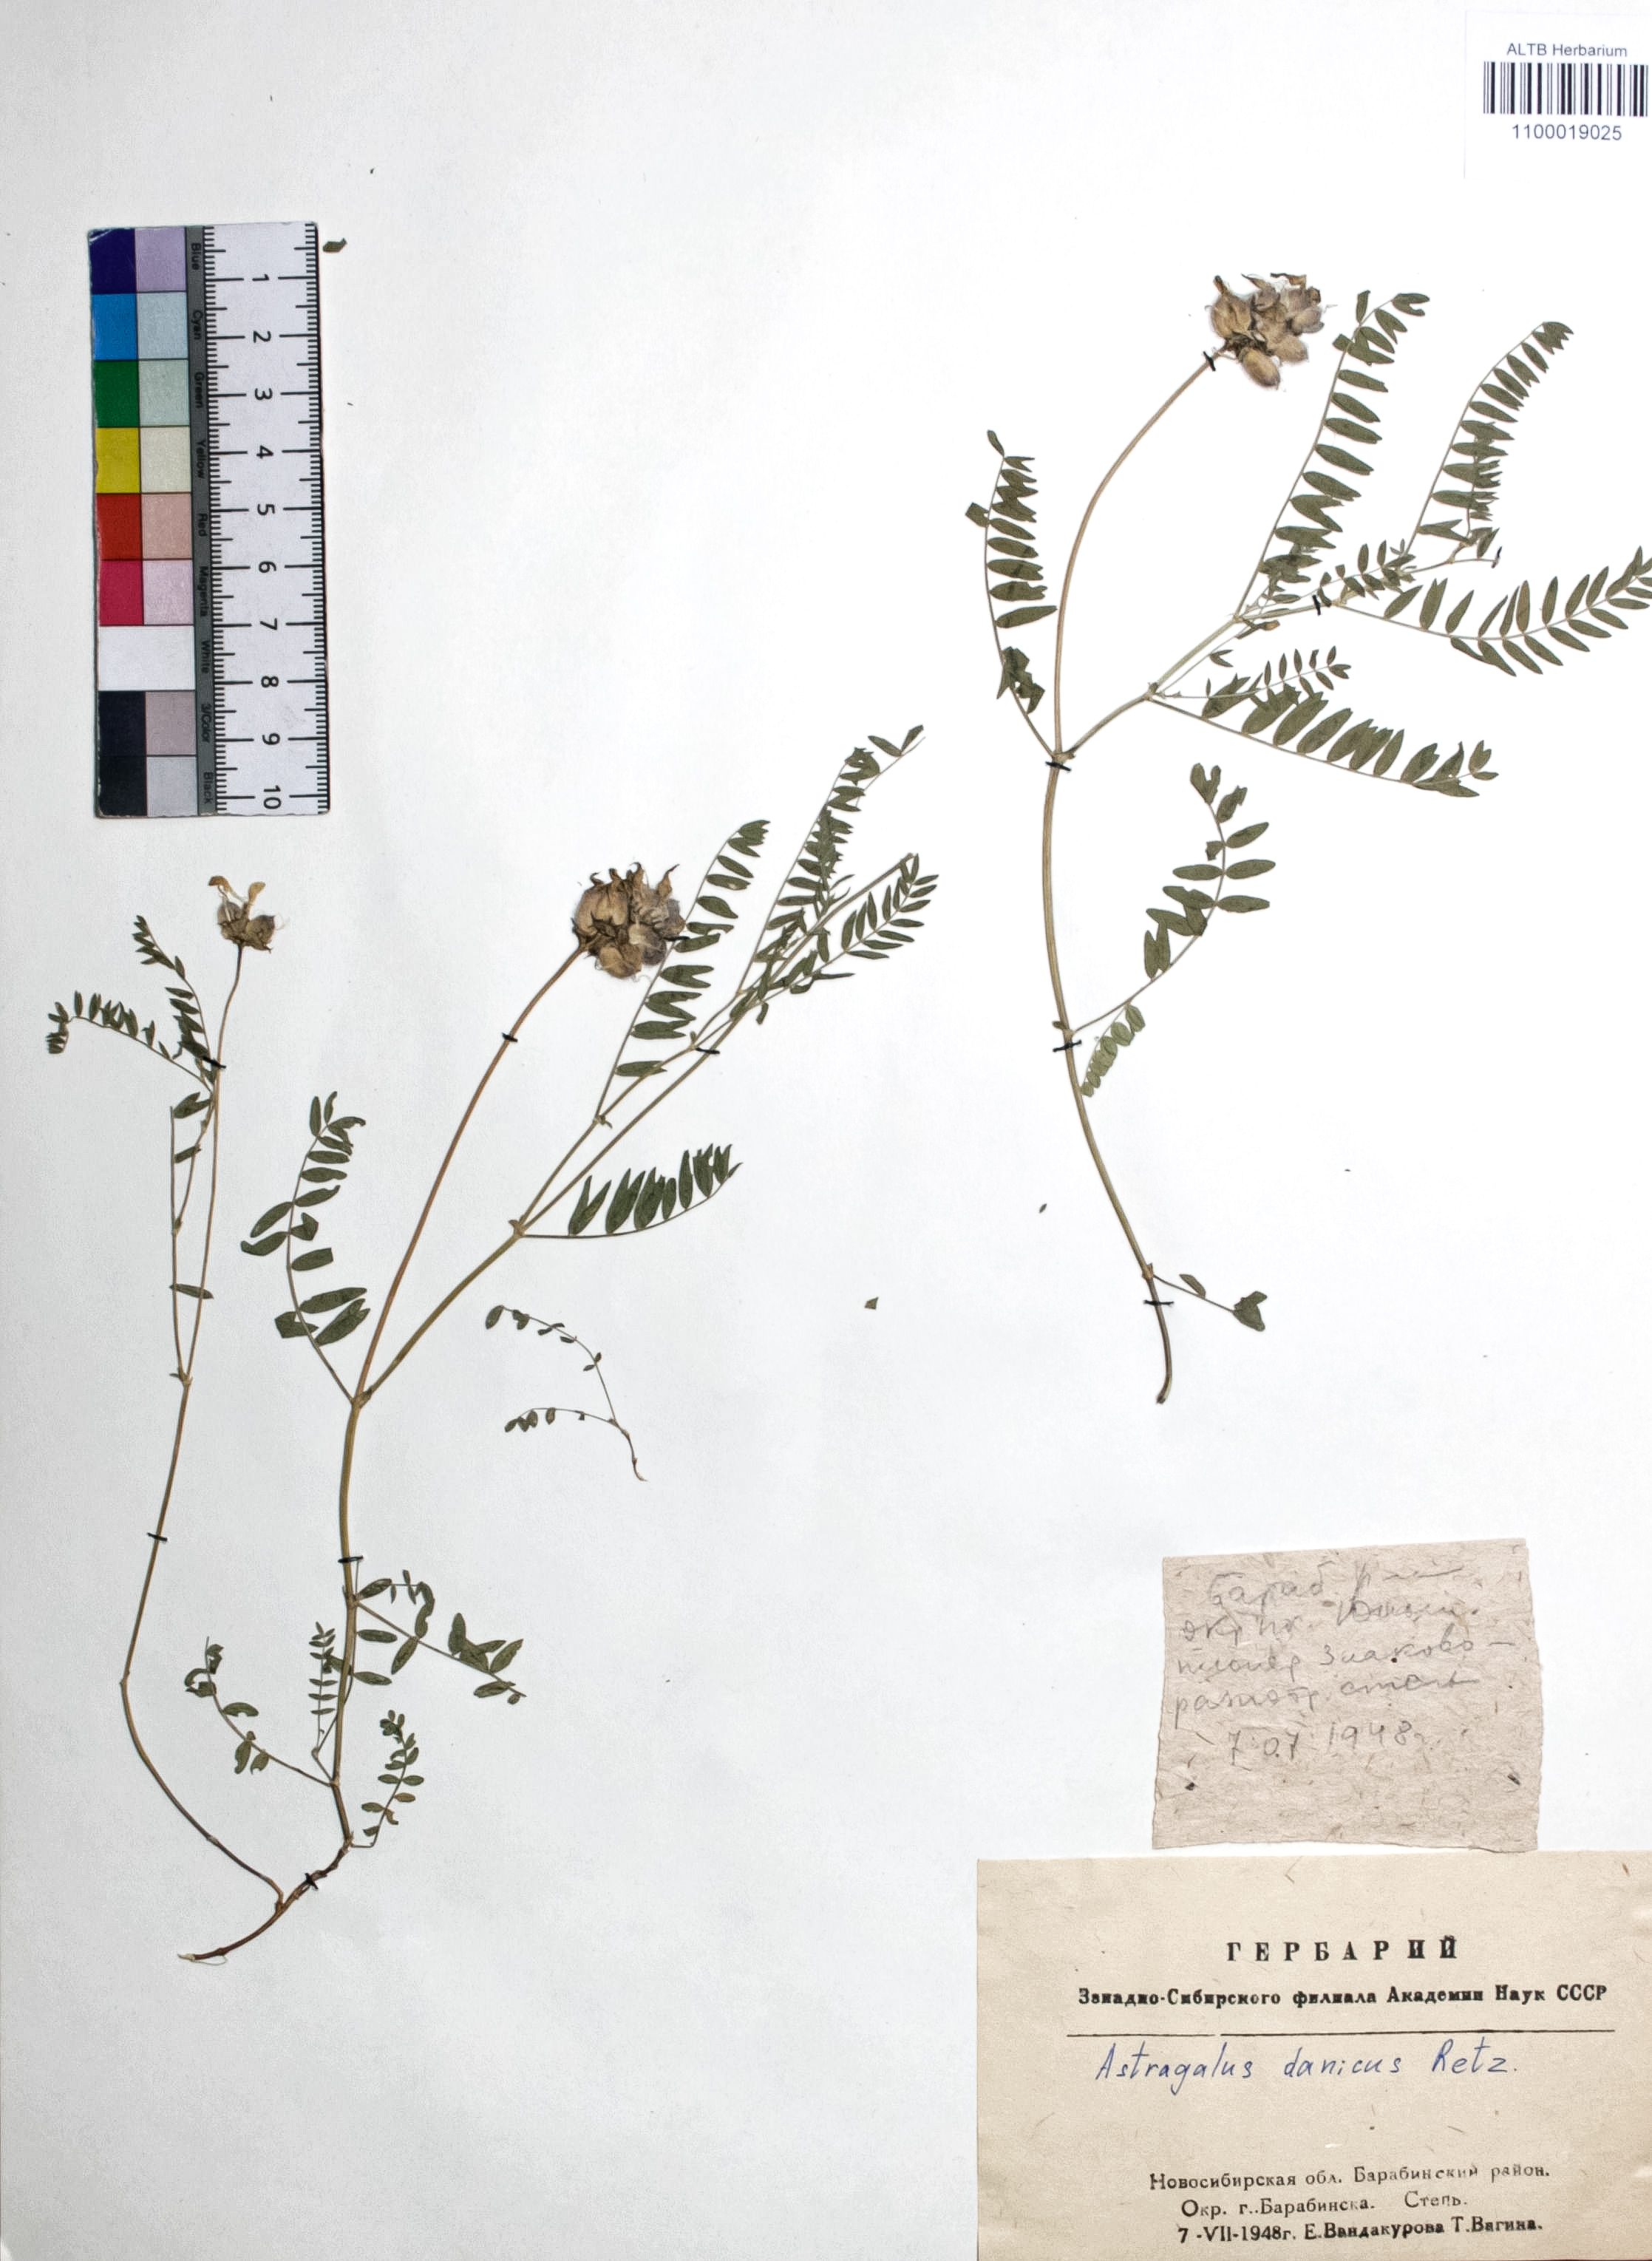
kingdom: Plantae
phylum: Tracheophyta
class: Magnoliopsida
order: Fabales
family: Fabaceae
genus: Astragalus
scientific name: Astragalus danicus
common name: Purple milk-vetch
